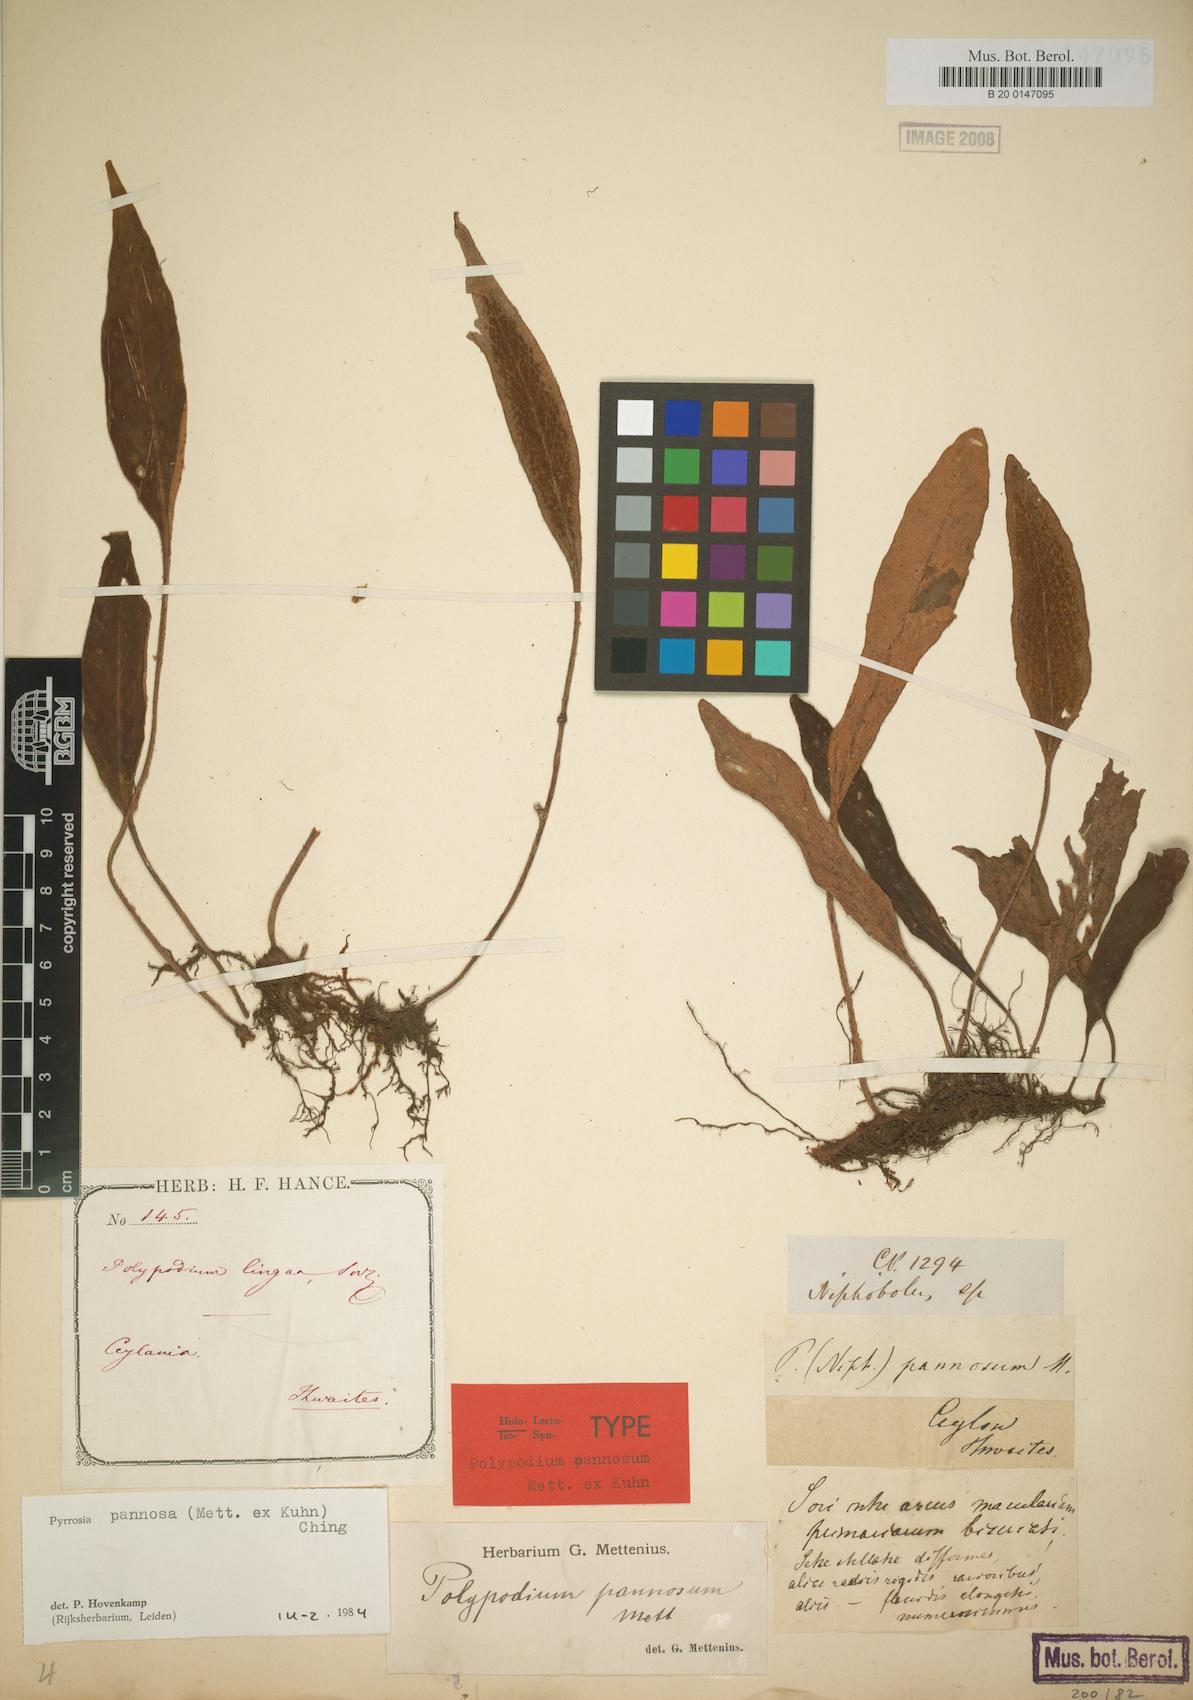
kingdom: Plantae
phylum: Tracheophyta
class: Polypodiopsida
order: Polypodiales
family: Polypodiaceae
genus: Pyrrosia
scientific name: Pyrrosia pannosa
